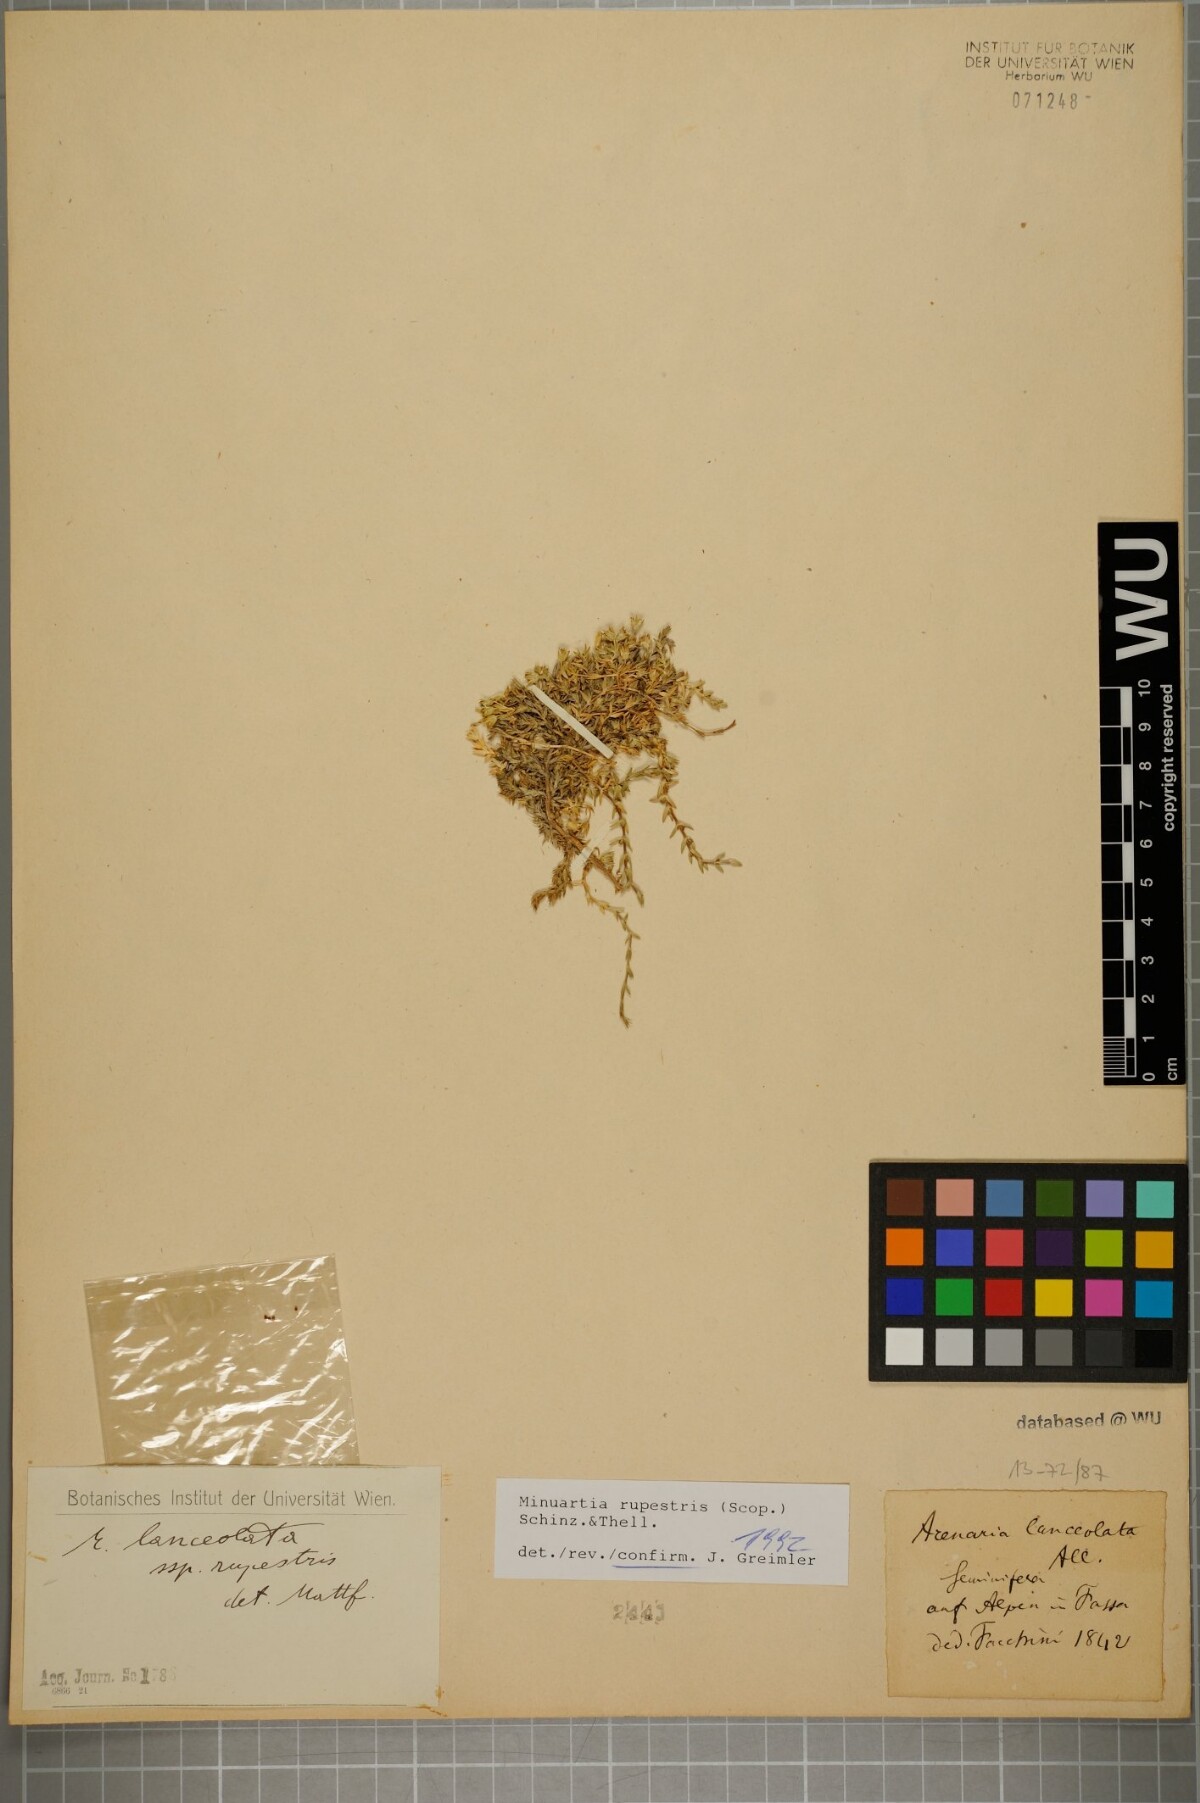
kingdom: Plantae
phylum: Tracheophyta
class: Magnoliopsida
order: Caryophyllales
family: Caryophyllaceae
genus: Facchinia
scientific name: Facchinia rupestris
